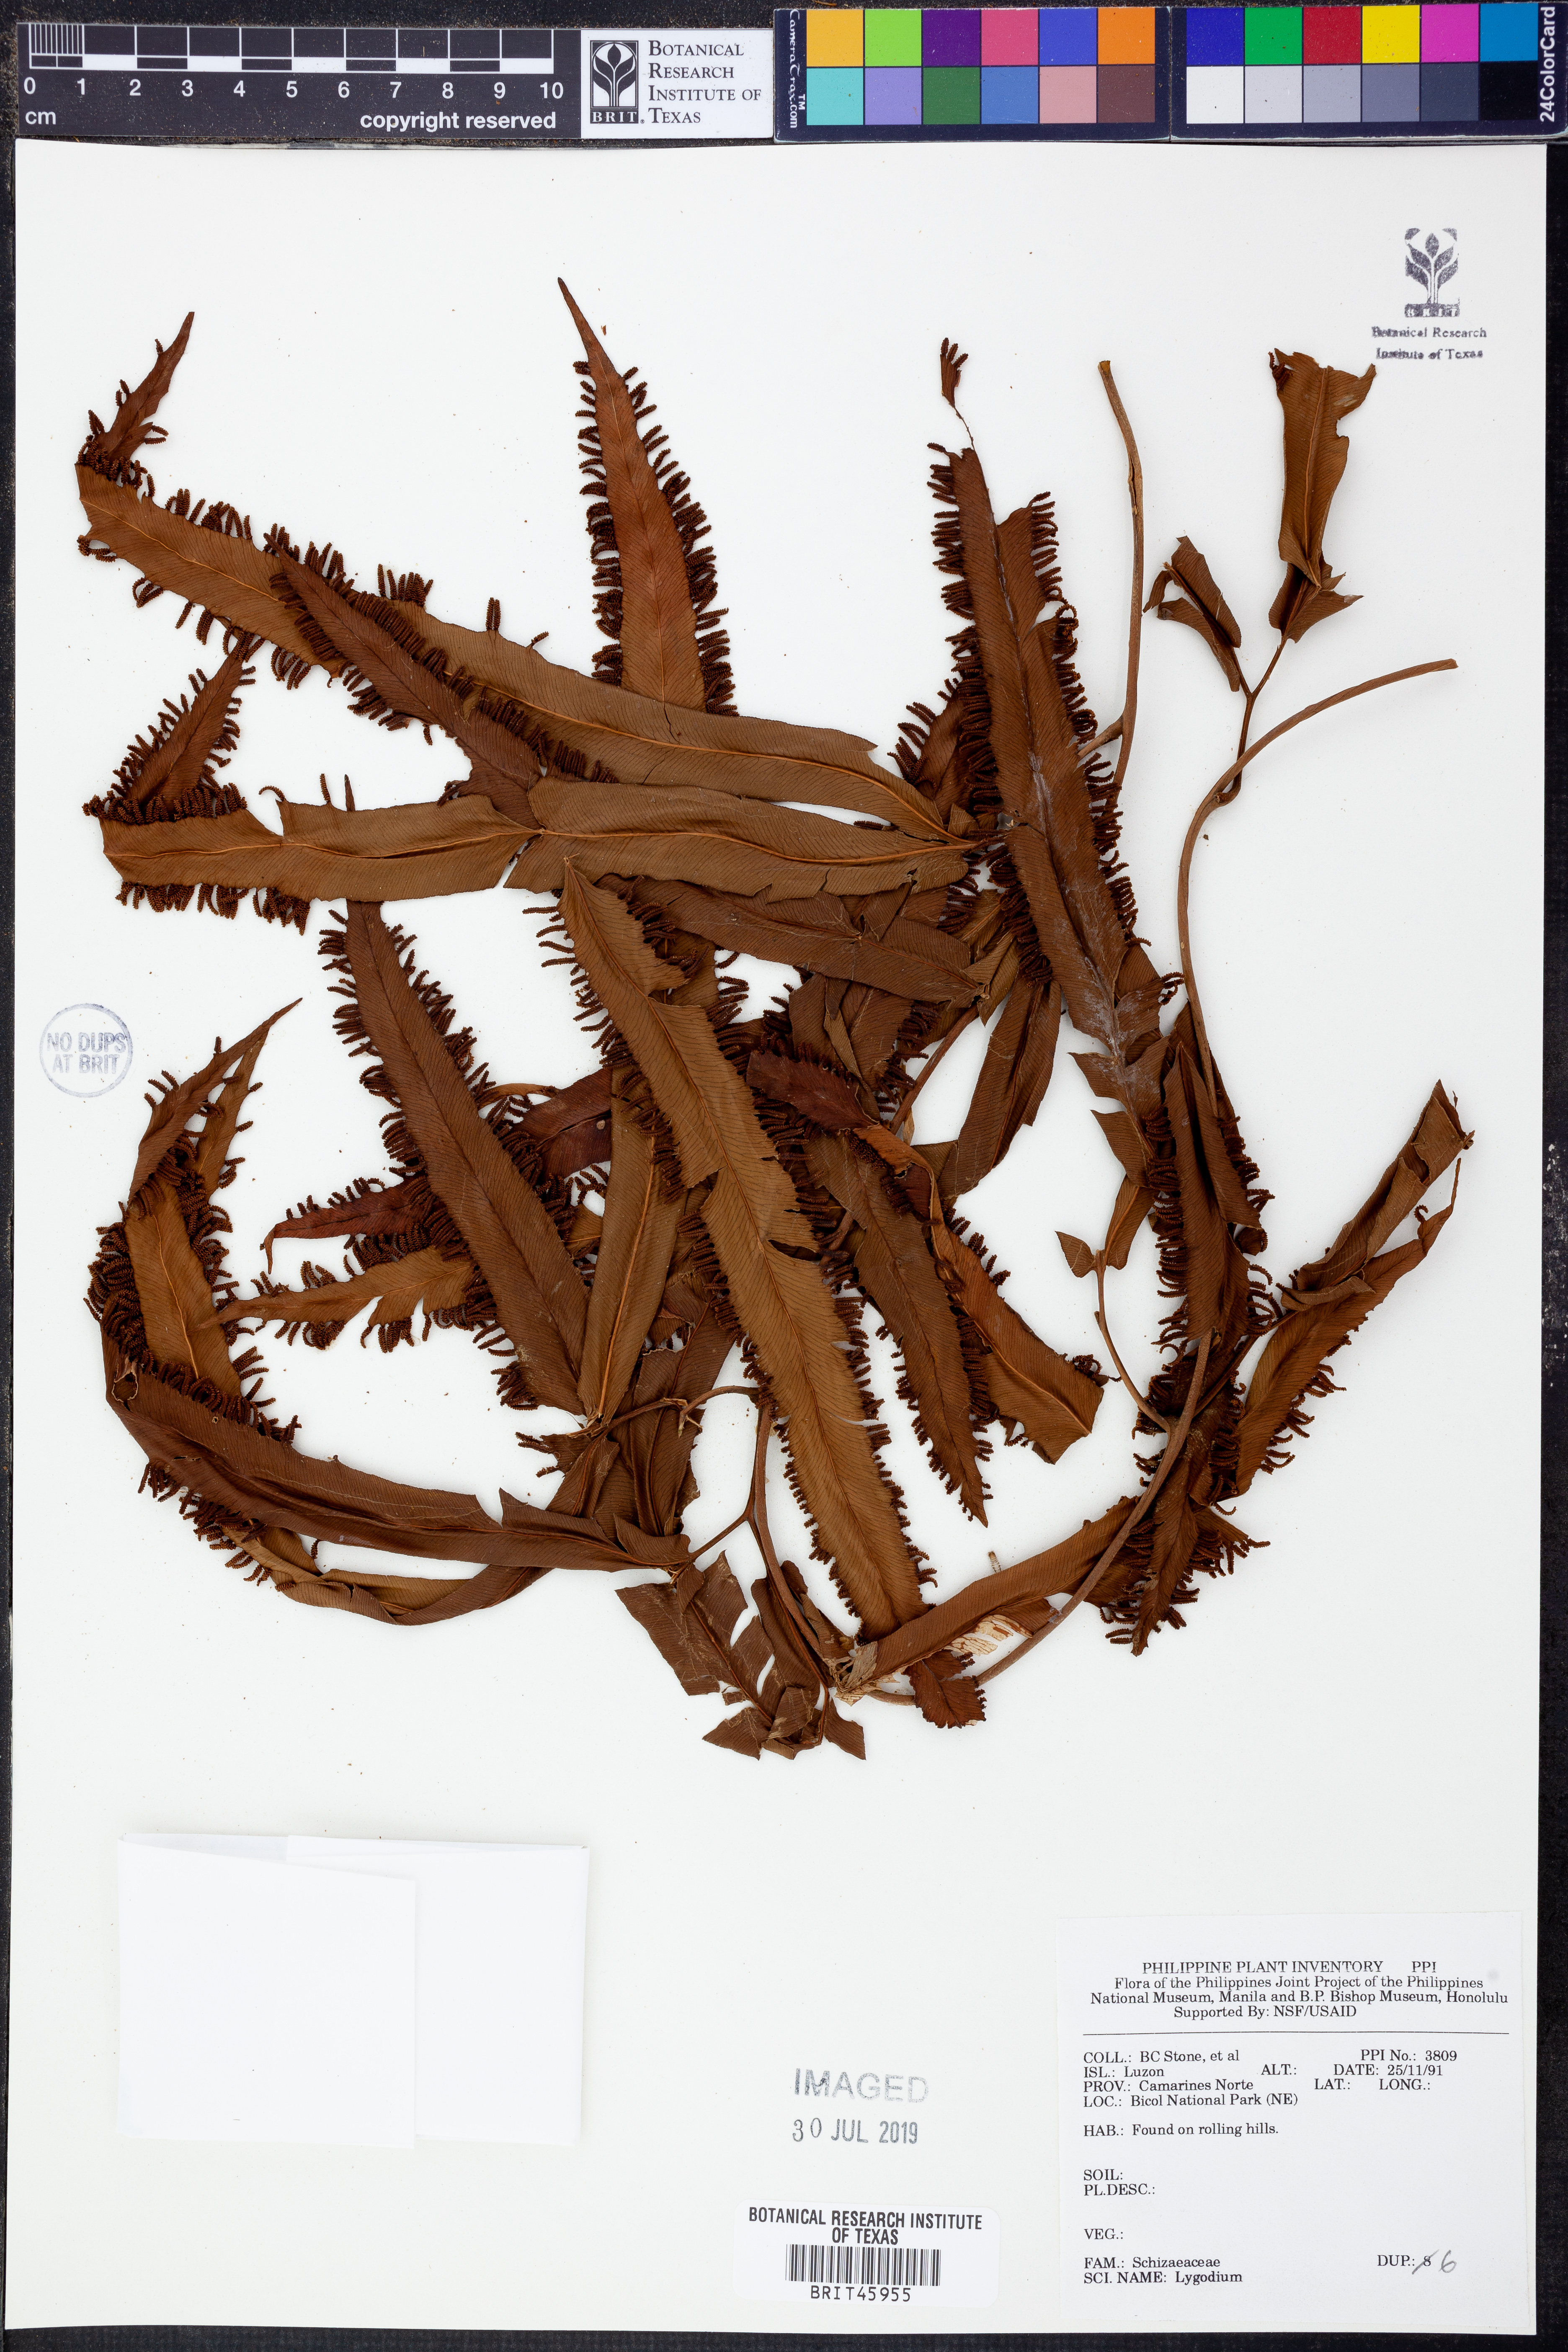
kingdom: Plantae
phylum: Tracheophyta
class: Polypodiopsida
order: Schizaeales
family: Lygodiaceae
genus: Lygodium
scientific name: Lygodium
